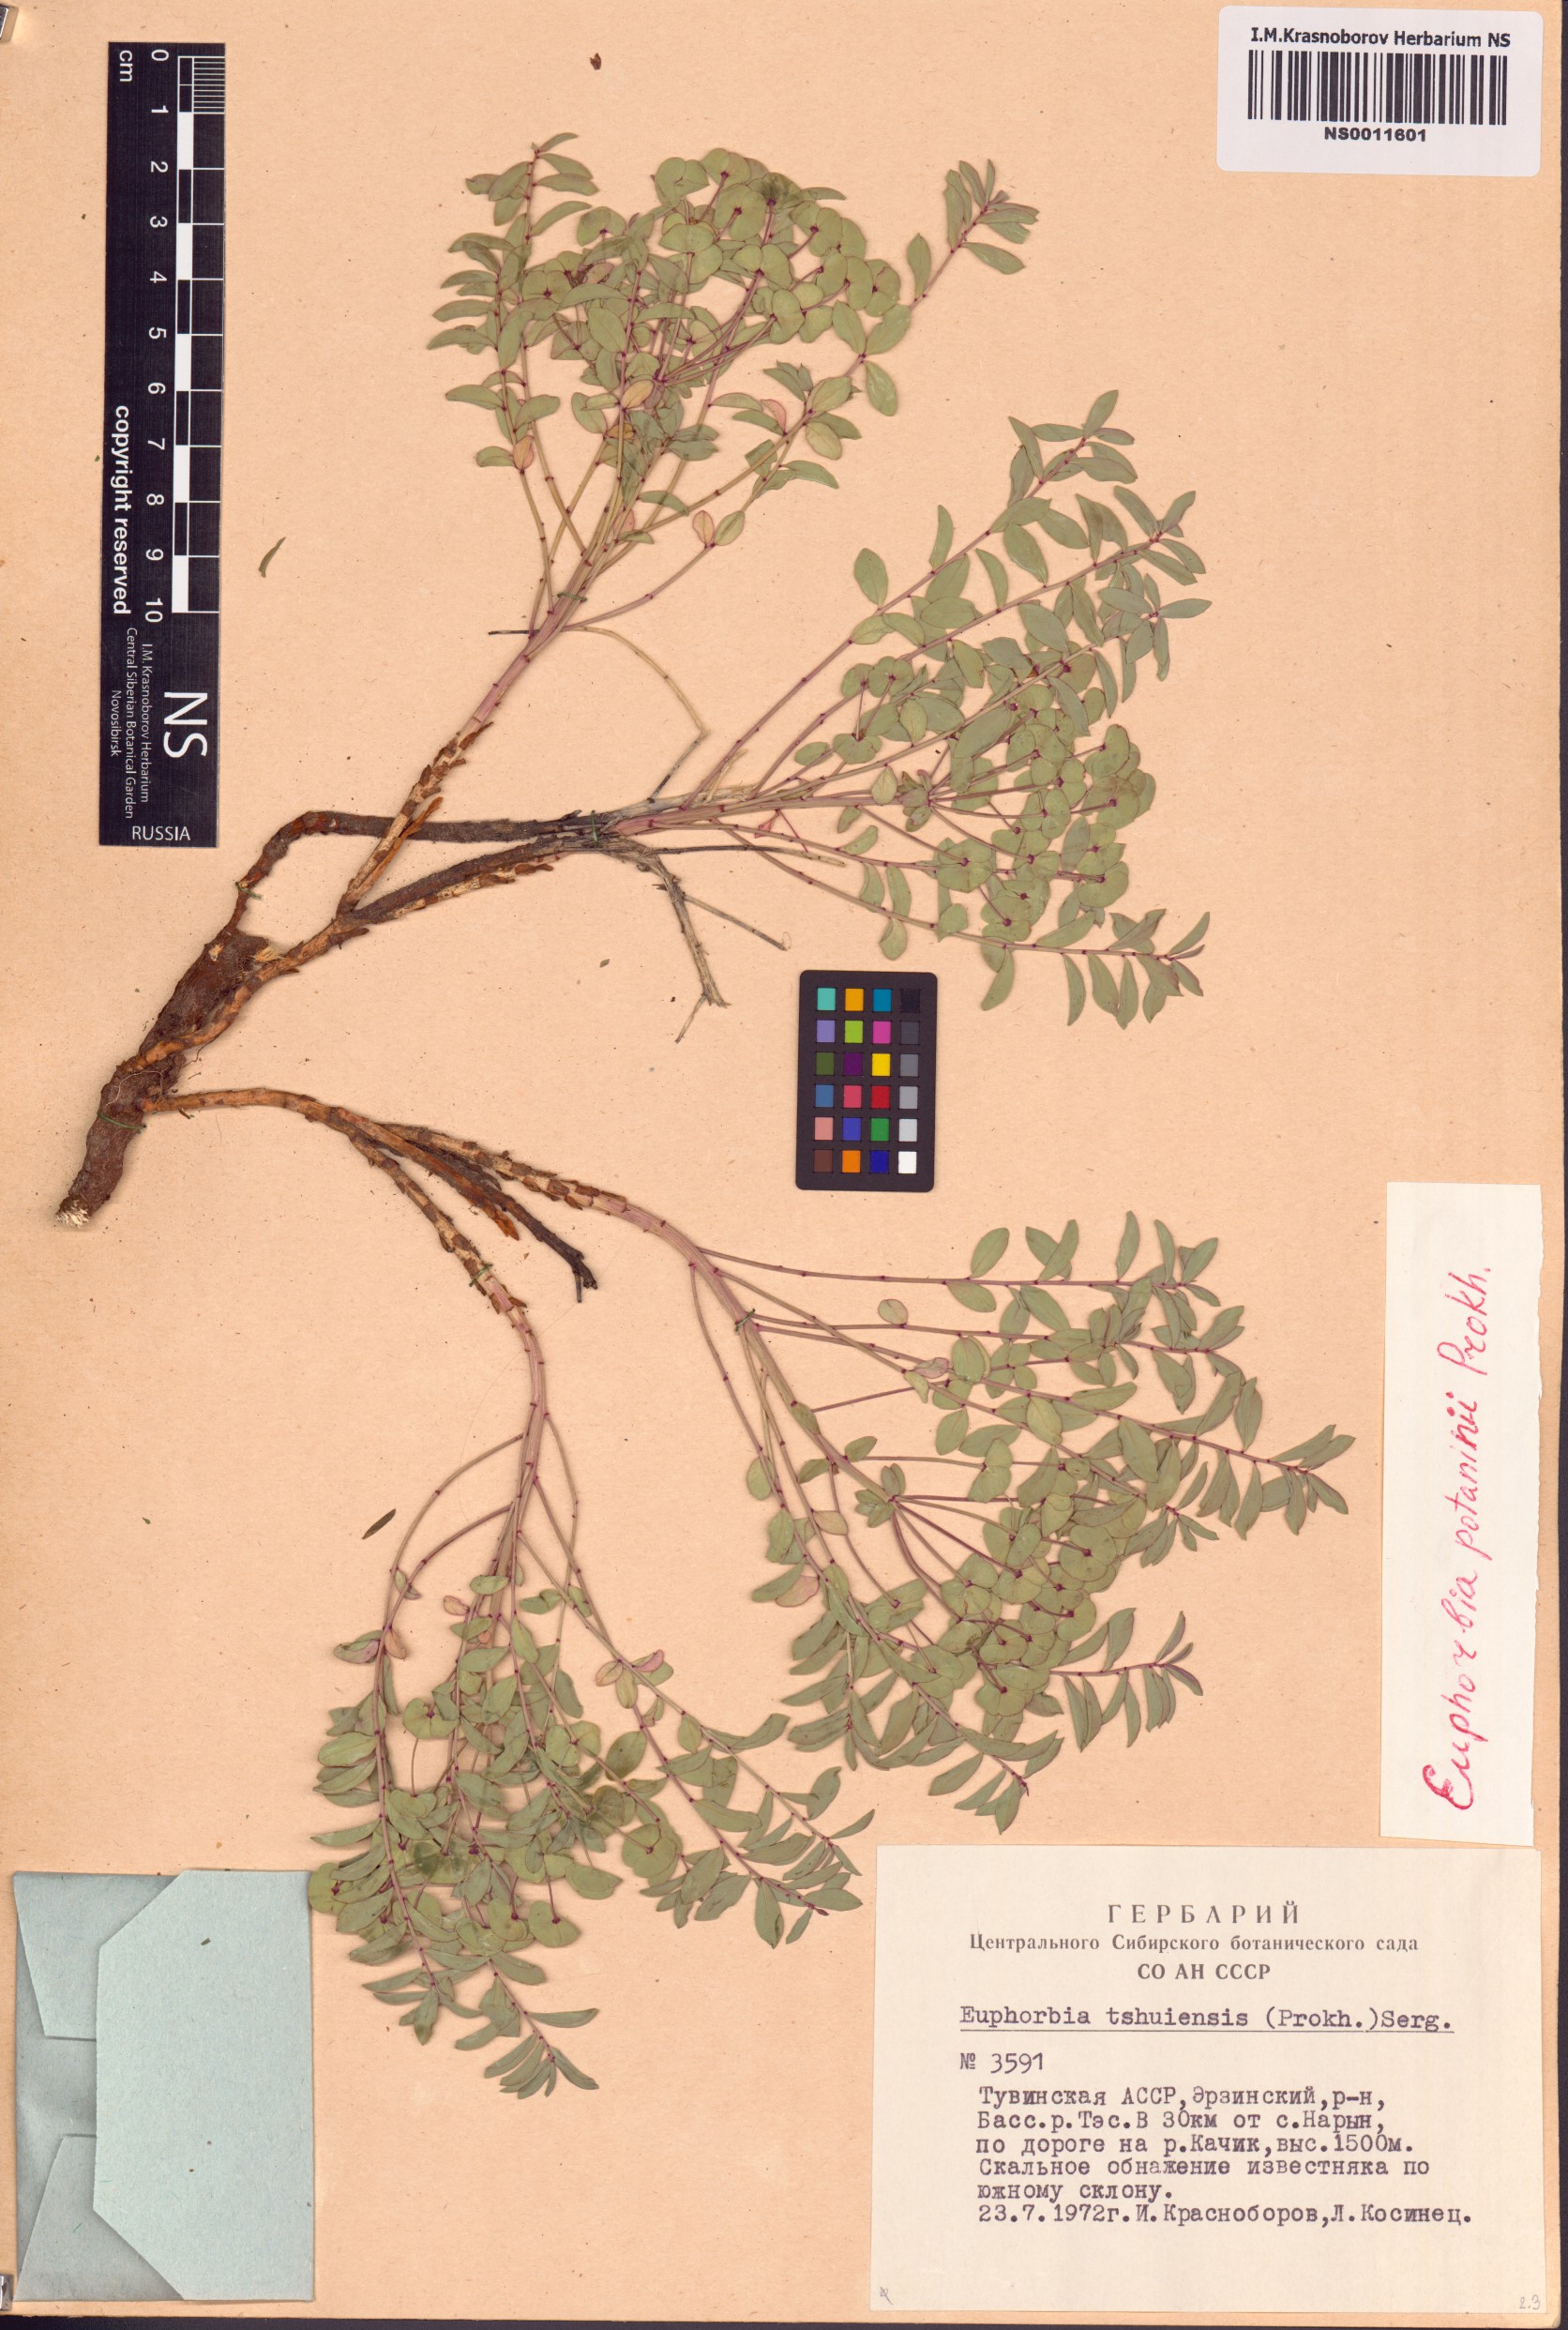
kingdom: Plantae
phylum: Tracheophyta
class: Magnoliopsida
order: Malpighiales
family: Euphorbiaceae
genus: Euphorbia
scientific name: Euphorbia potaninii
